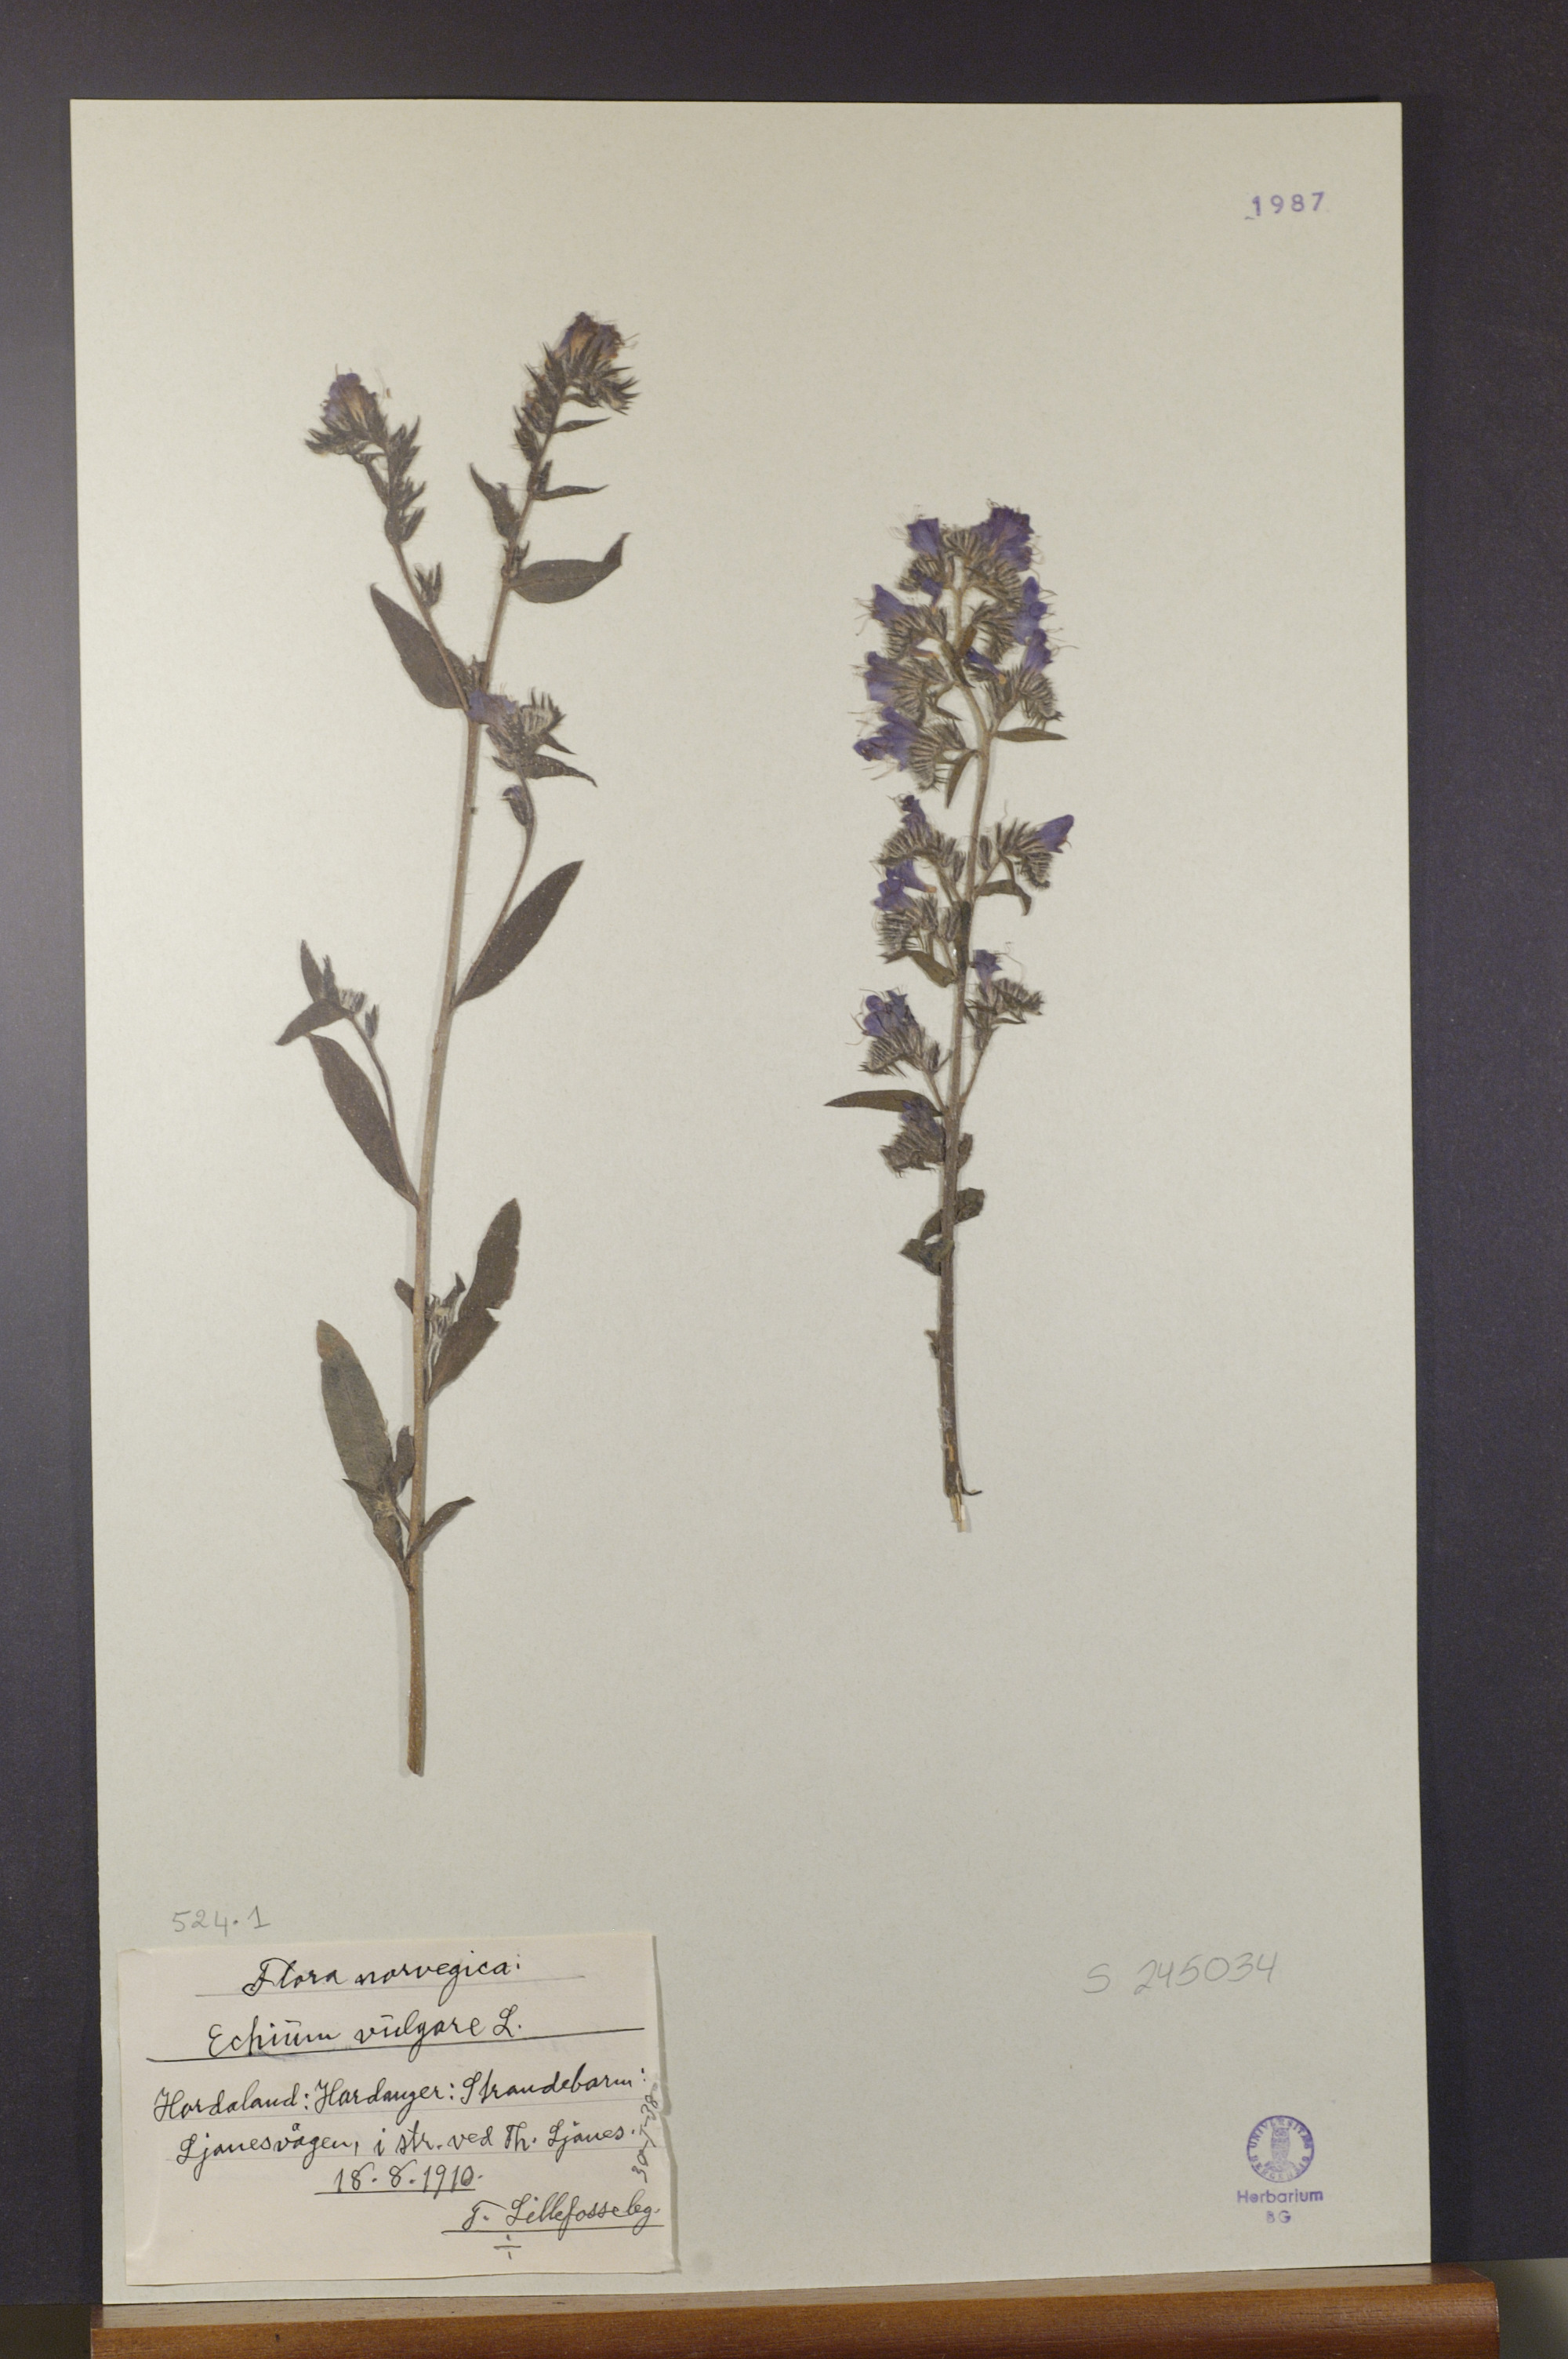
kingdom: Plantae
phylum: Tracheophyta
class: Magnoliopsida
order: Boraginales
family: Boraginaceae
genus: Echium
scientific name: Echium vulgare
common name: Common viper's bugloss
